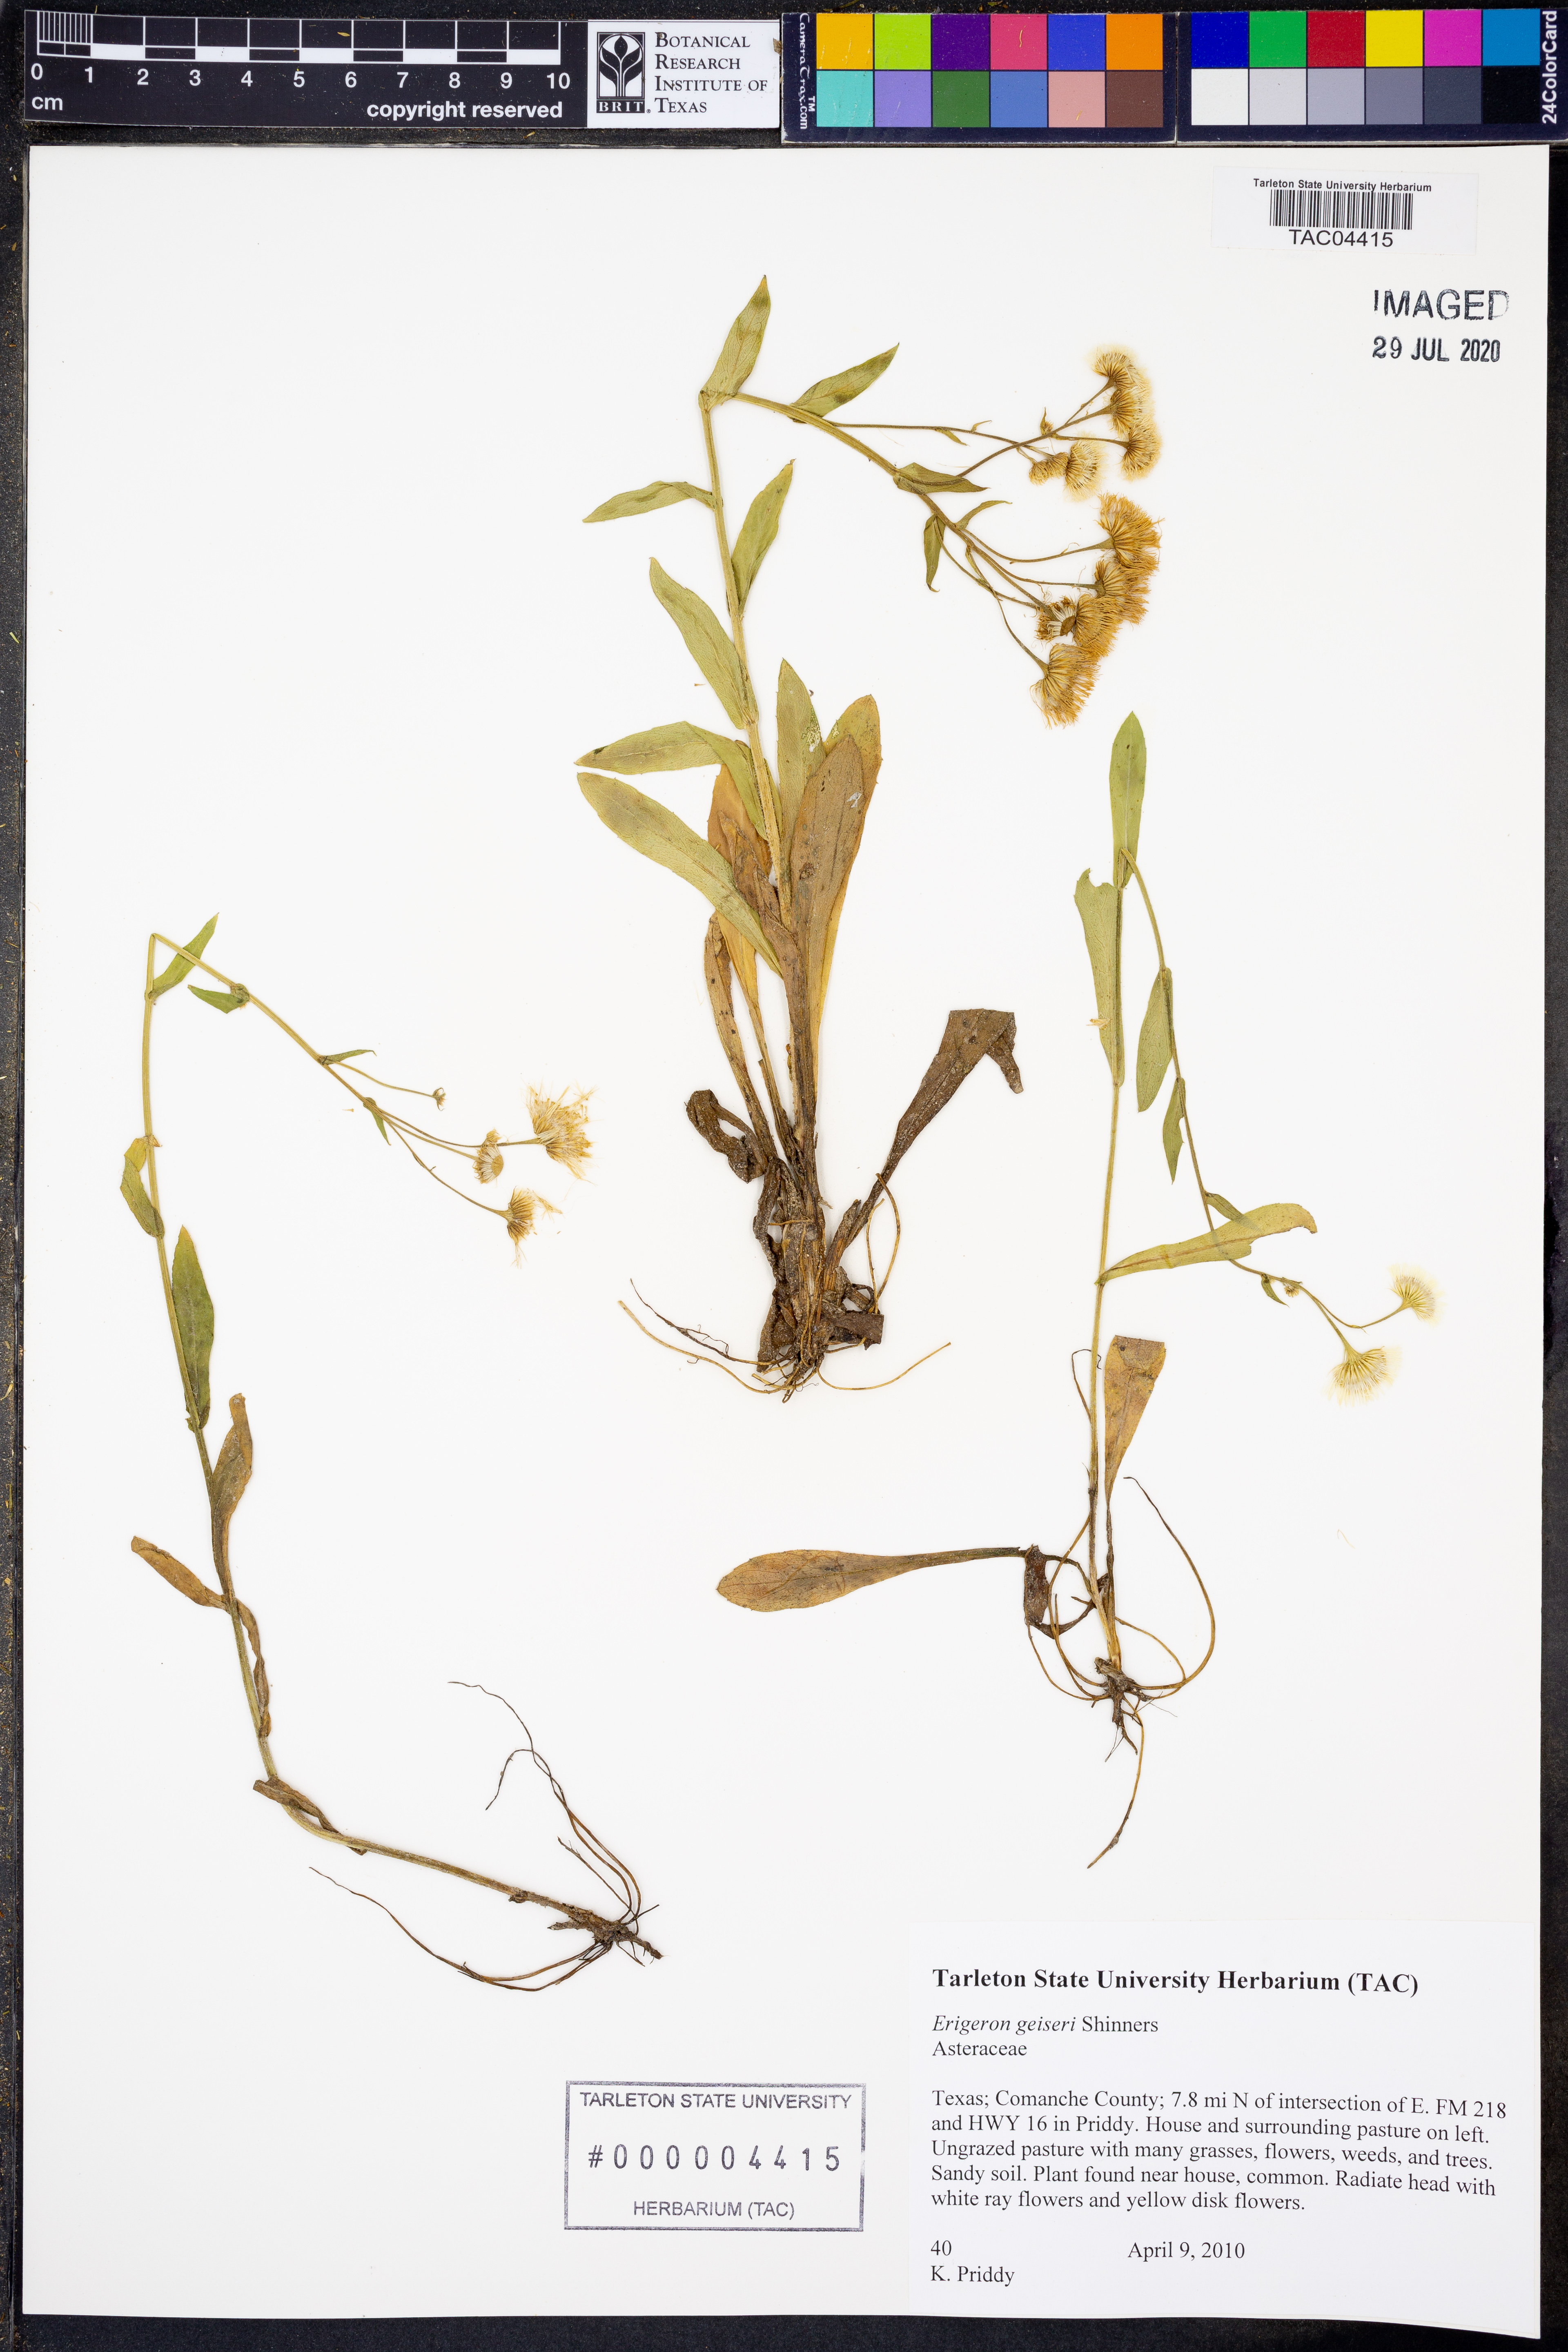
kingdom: Plantae
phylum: Tracheophyta
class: Magnoliopsida
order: Asterales
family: Asteraceae
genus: Erigeron
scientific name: Erigeron geiseri
